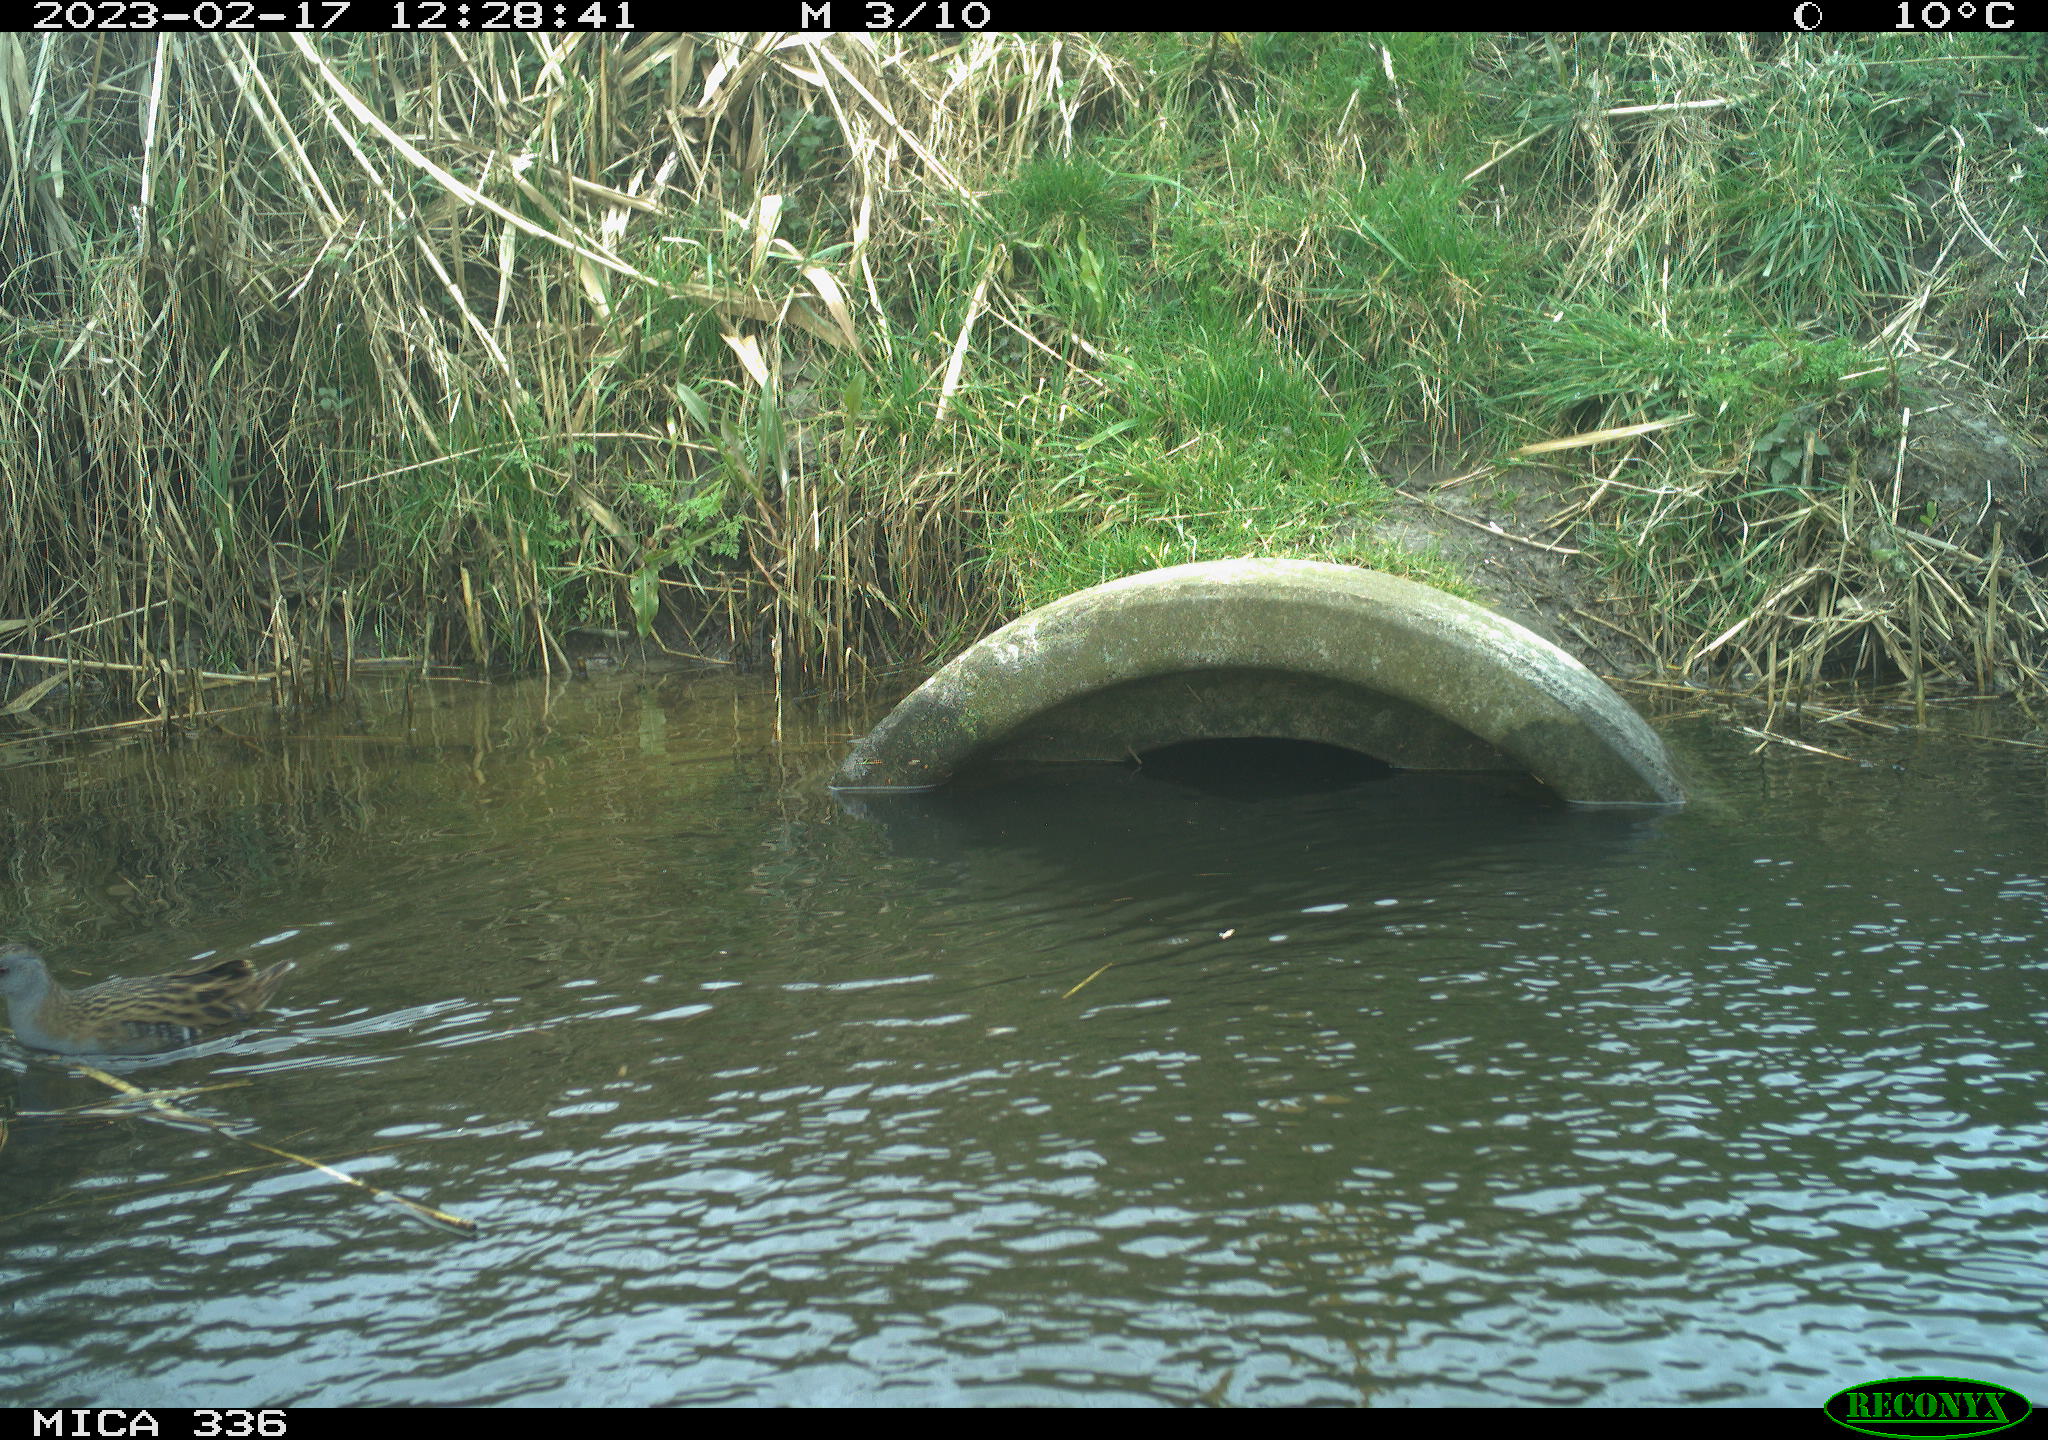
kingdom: Animalia
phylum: Chordata
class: Aves
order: Gruiformes
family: Rallidae
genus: Rallus
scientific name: Rallus aquaticus
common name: Water rail
